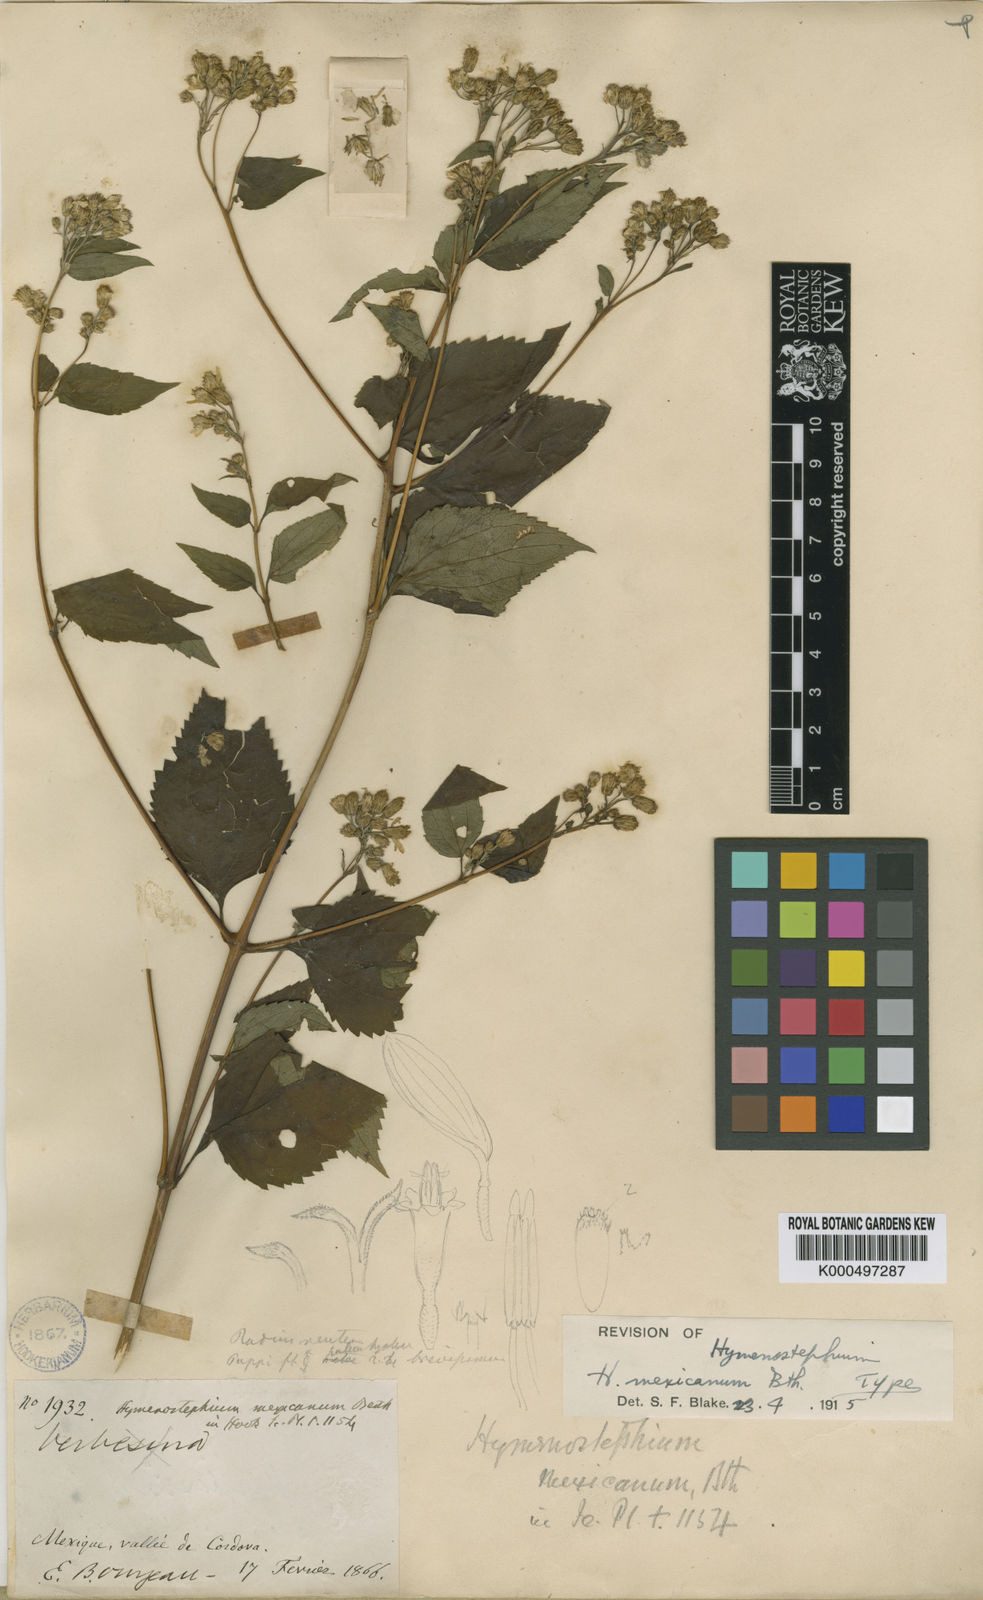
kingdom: Plantae
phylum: Tracheophyta
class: Magnoliopsida
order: Asterales
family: Asteraceae
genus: Hymenostephium
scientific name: Hymenostephium cordatum
